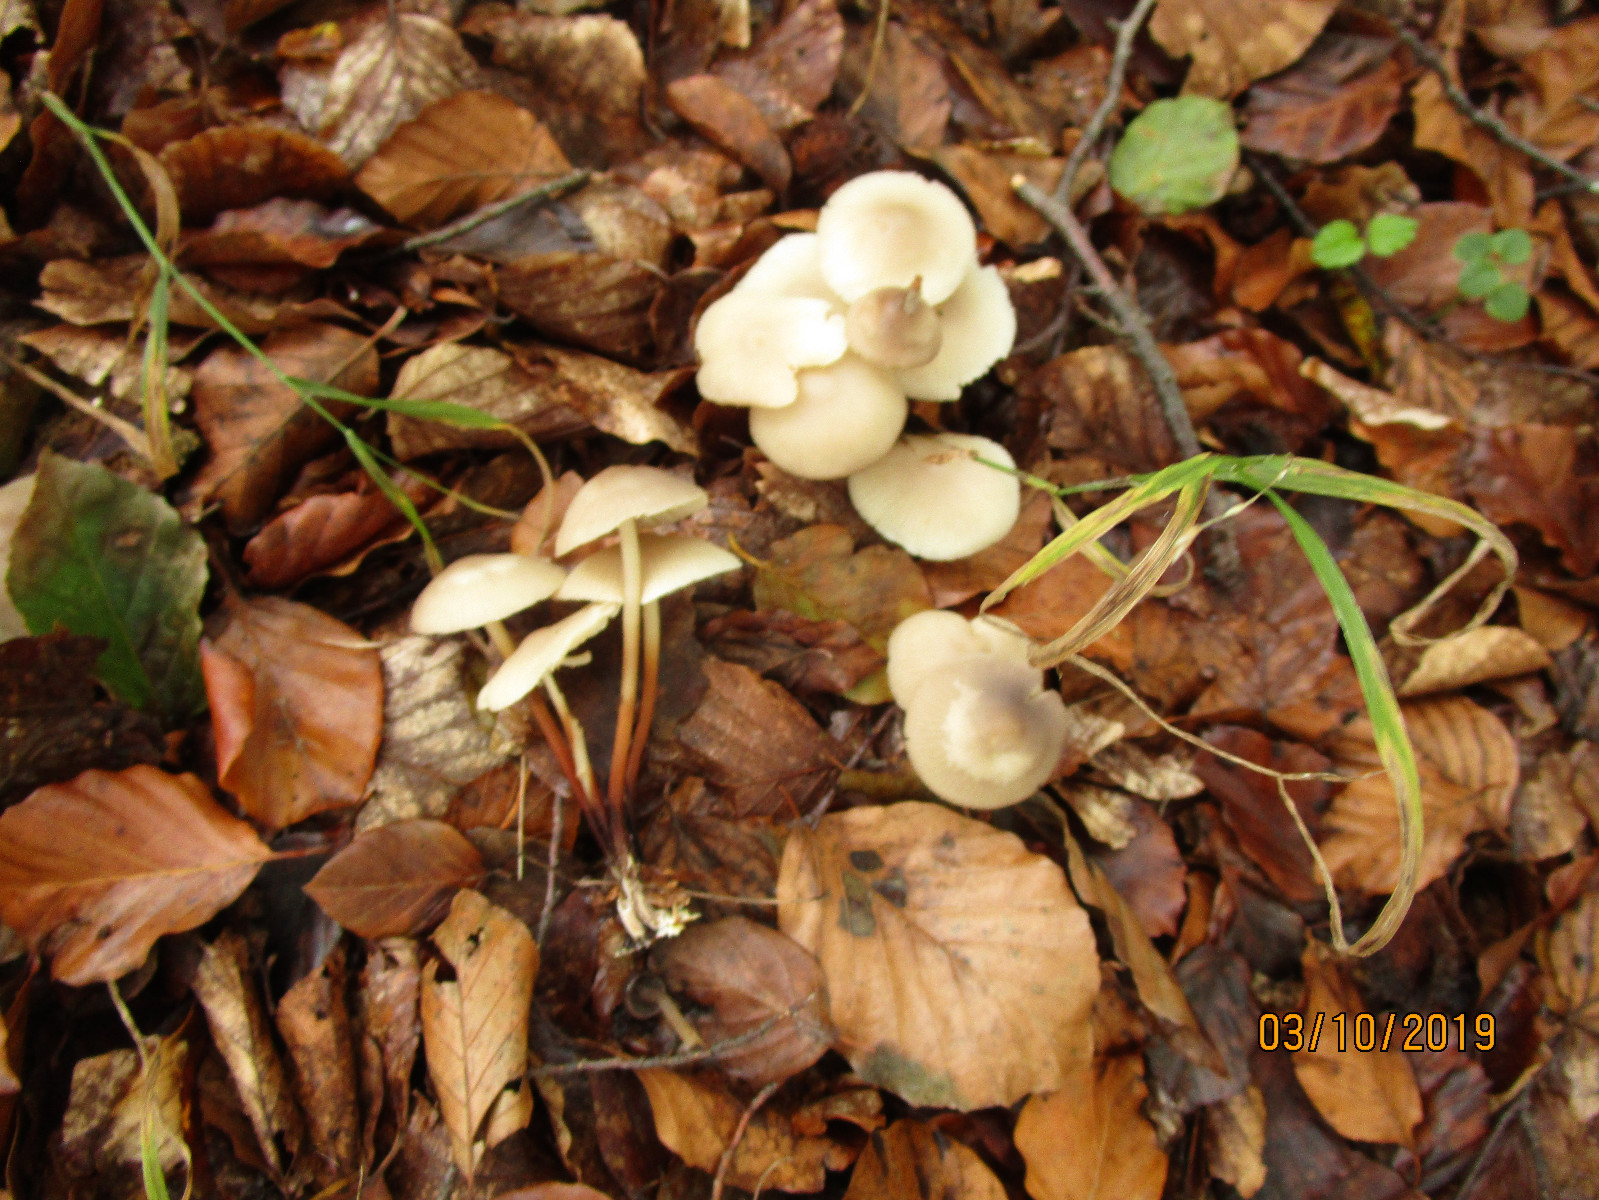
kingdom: Fungi
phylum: Basidiomycota
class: Agaricomycetes
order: Agaricales
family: Marasmiaceae
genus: Marasmius
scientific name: Marasmius wynneae
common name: hvælvet bruskhat
